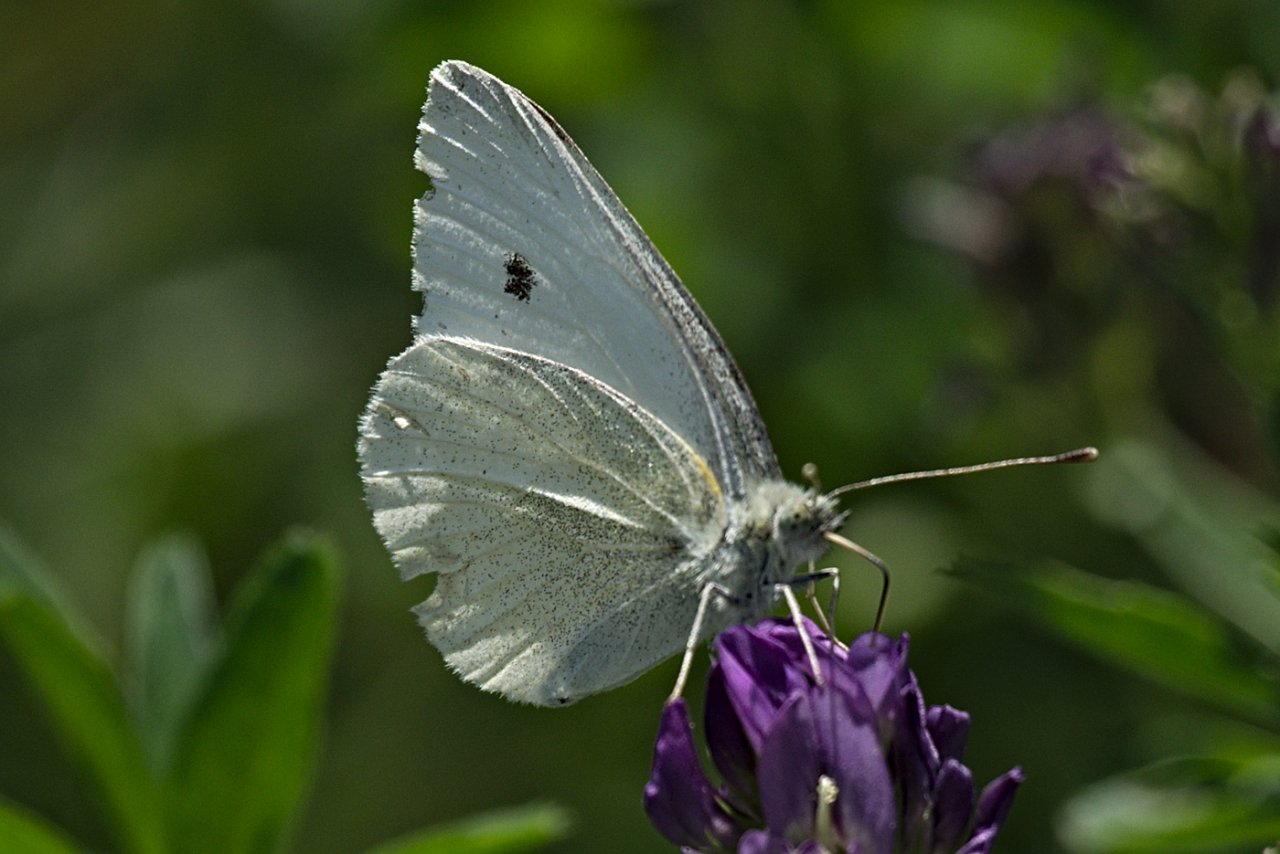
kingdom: Animalia
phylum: Arthropoda
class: Insecta
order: Lepidoptera
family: Pieridae
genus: Pieris
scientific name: Pieris rapae
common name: Cabbage White
